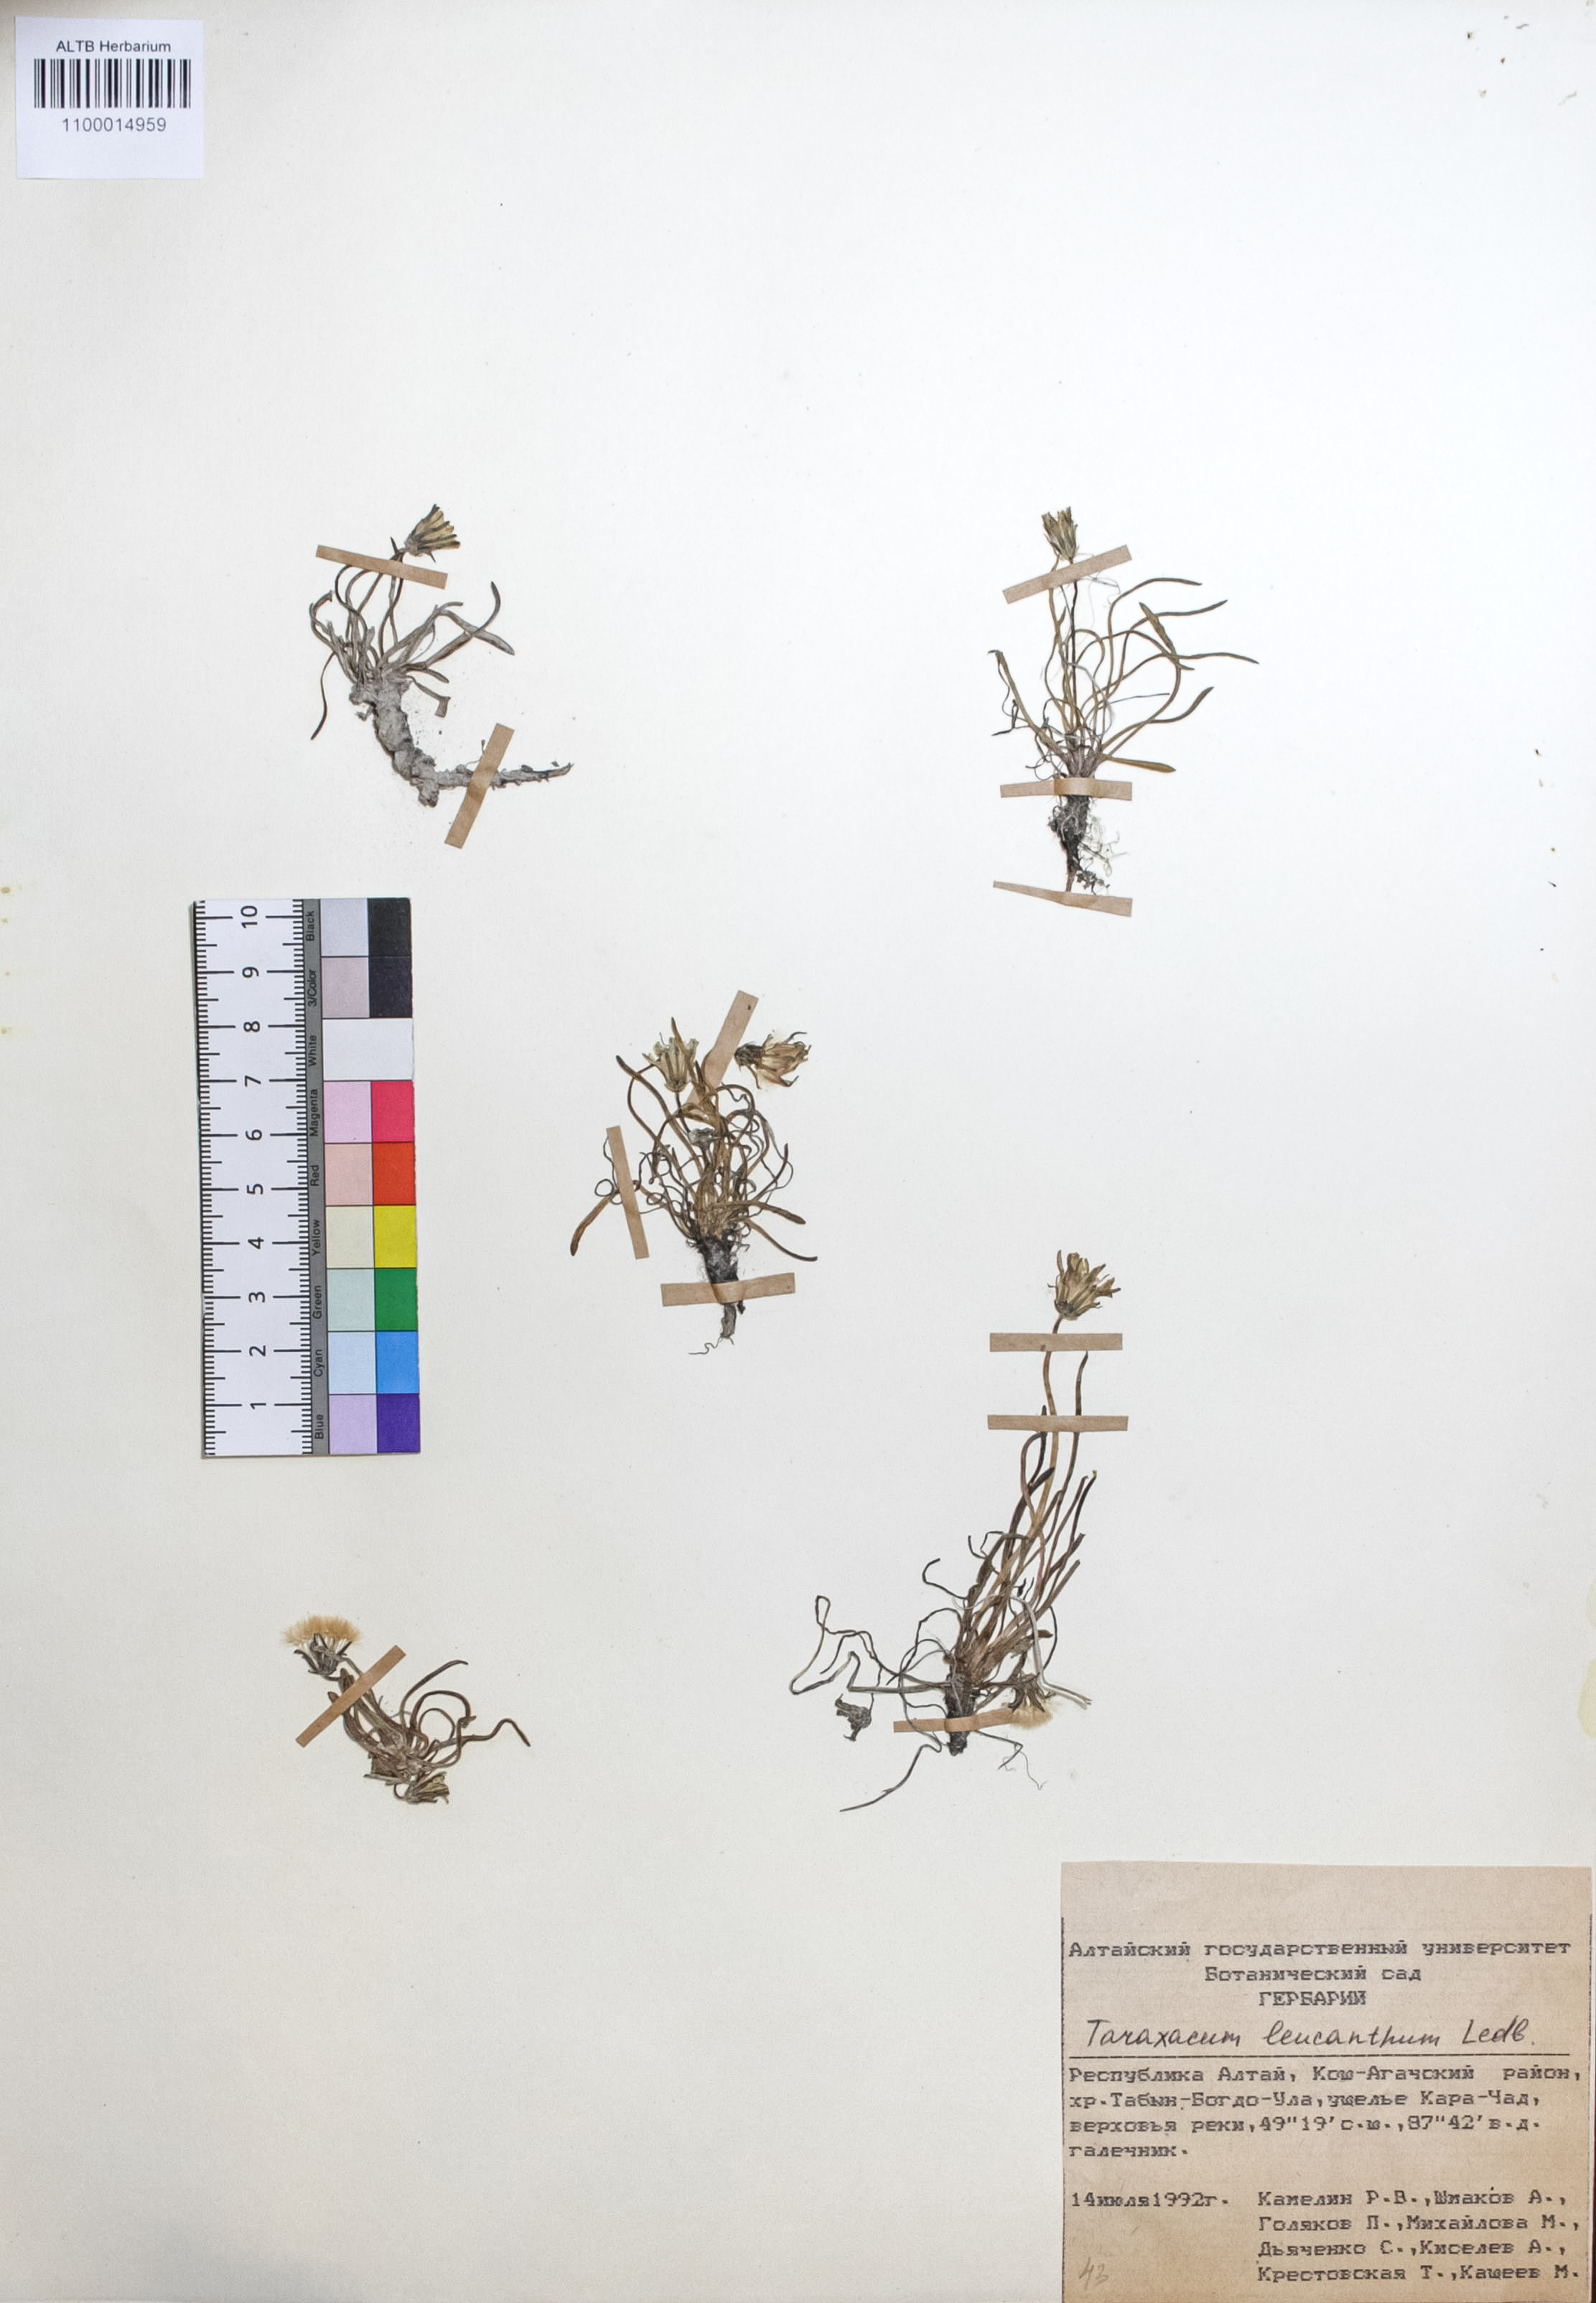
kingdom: Plantae
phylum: Tracheophyta
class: Magnoliopsida
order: Asterales
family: Asteraceae
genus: Taraxacum
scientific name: Taraxacum leucanthum
